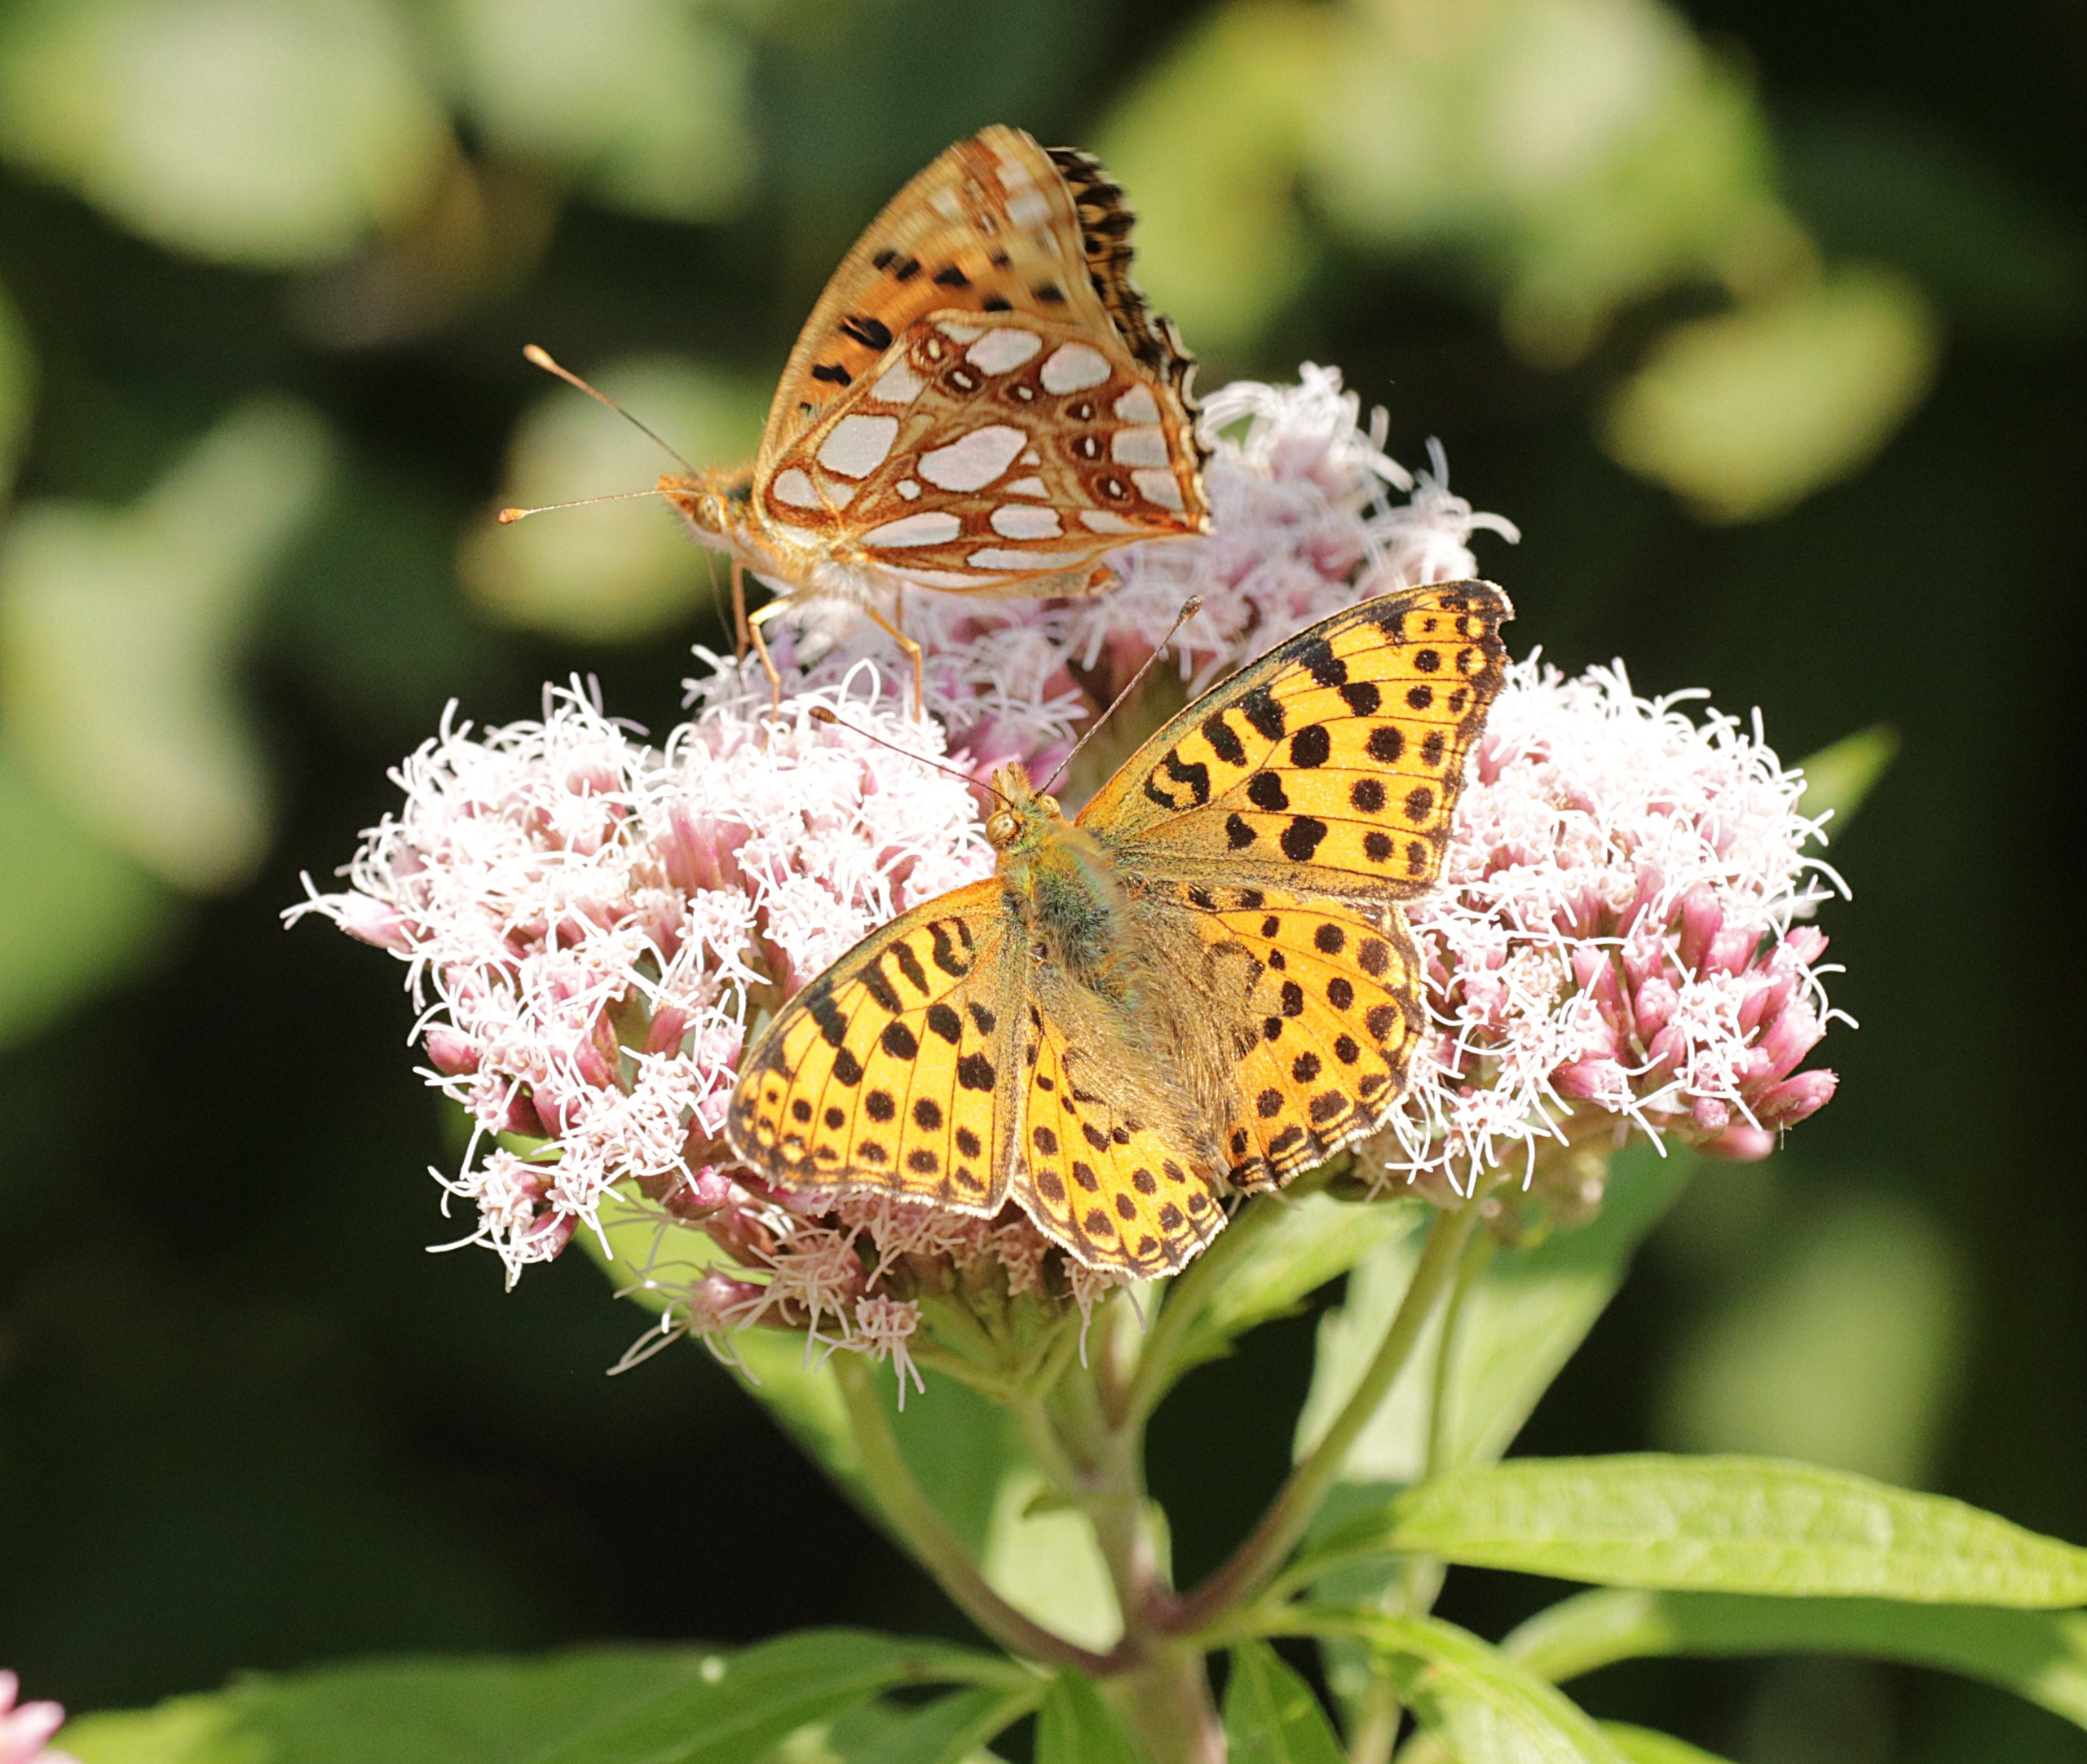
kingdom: Animalia
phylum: Arthropoda
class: Insecta
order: Lepidoptera
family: Nymphalidae
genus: Issoria
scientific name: Issoria lathonia
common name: Storplettet perlemorsommerfugl
